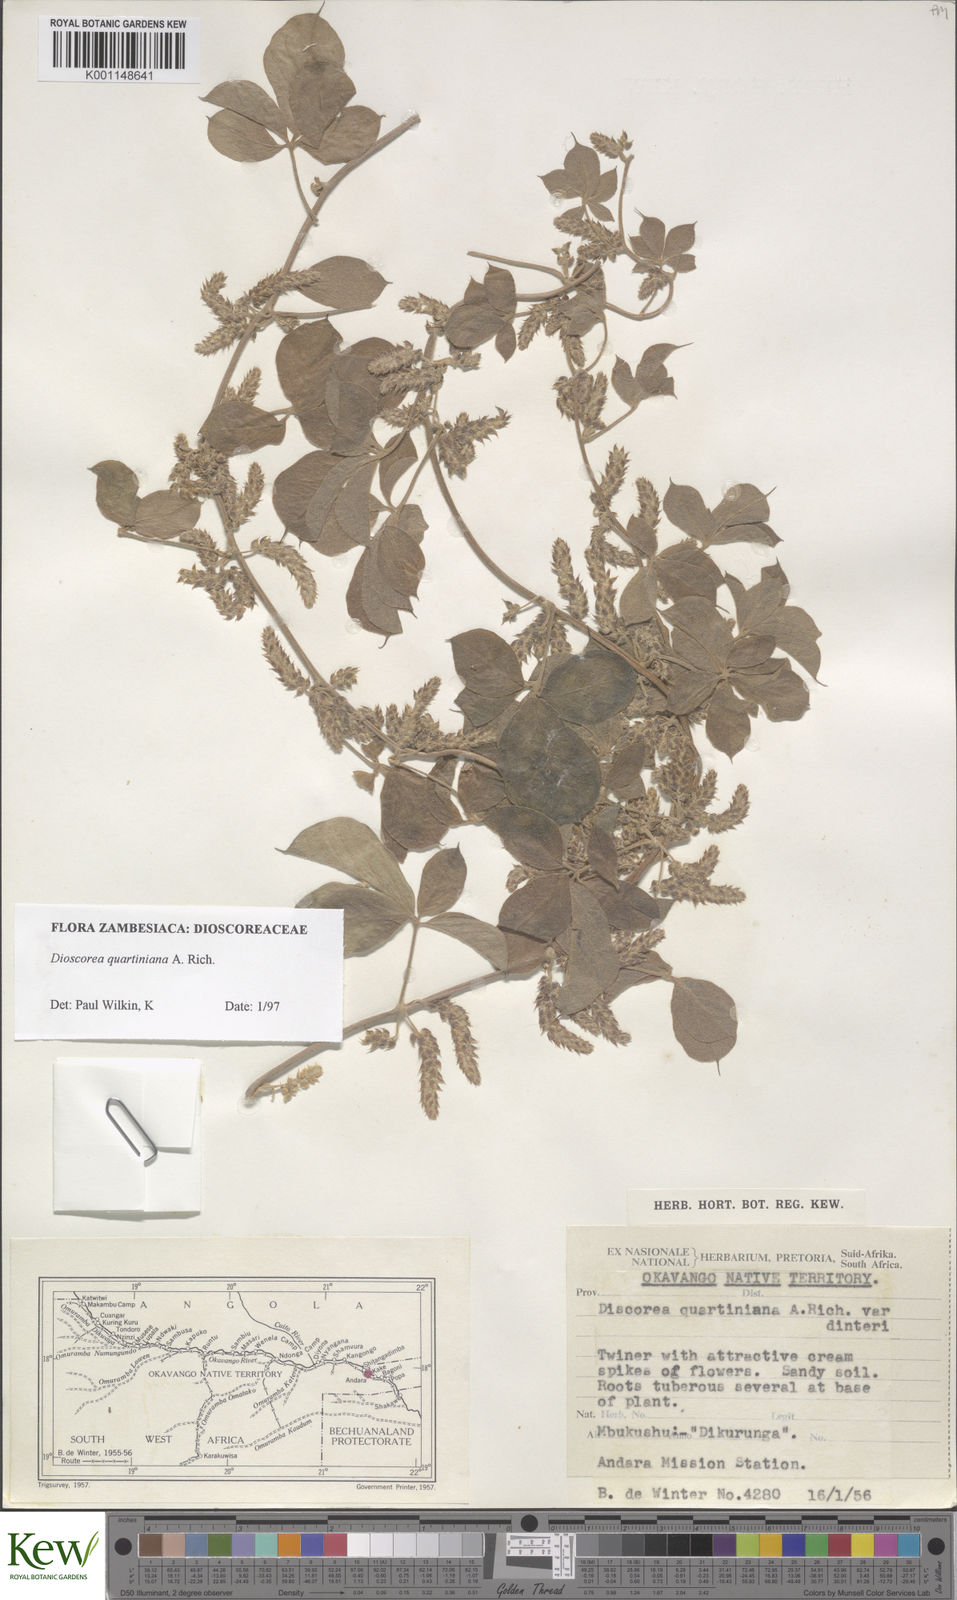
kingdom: Plantae
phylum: Tracheophyta
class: Liliopsida
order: Dioscoreales
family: Dioscoreaceae
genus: Dioscorea
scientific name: Dioscorea quartiniana
